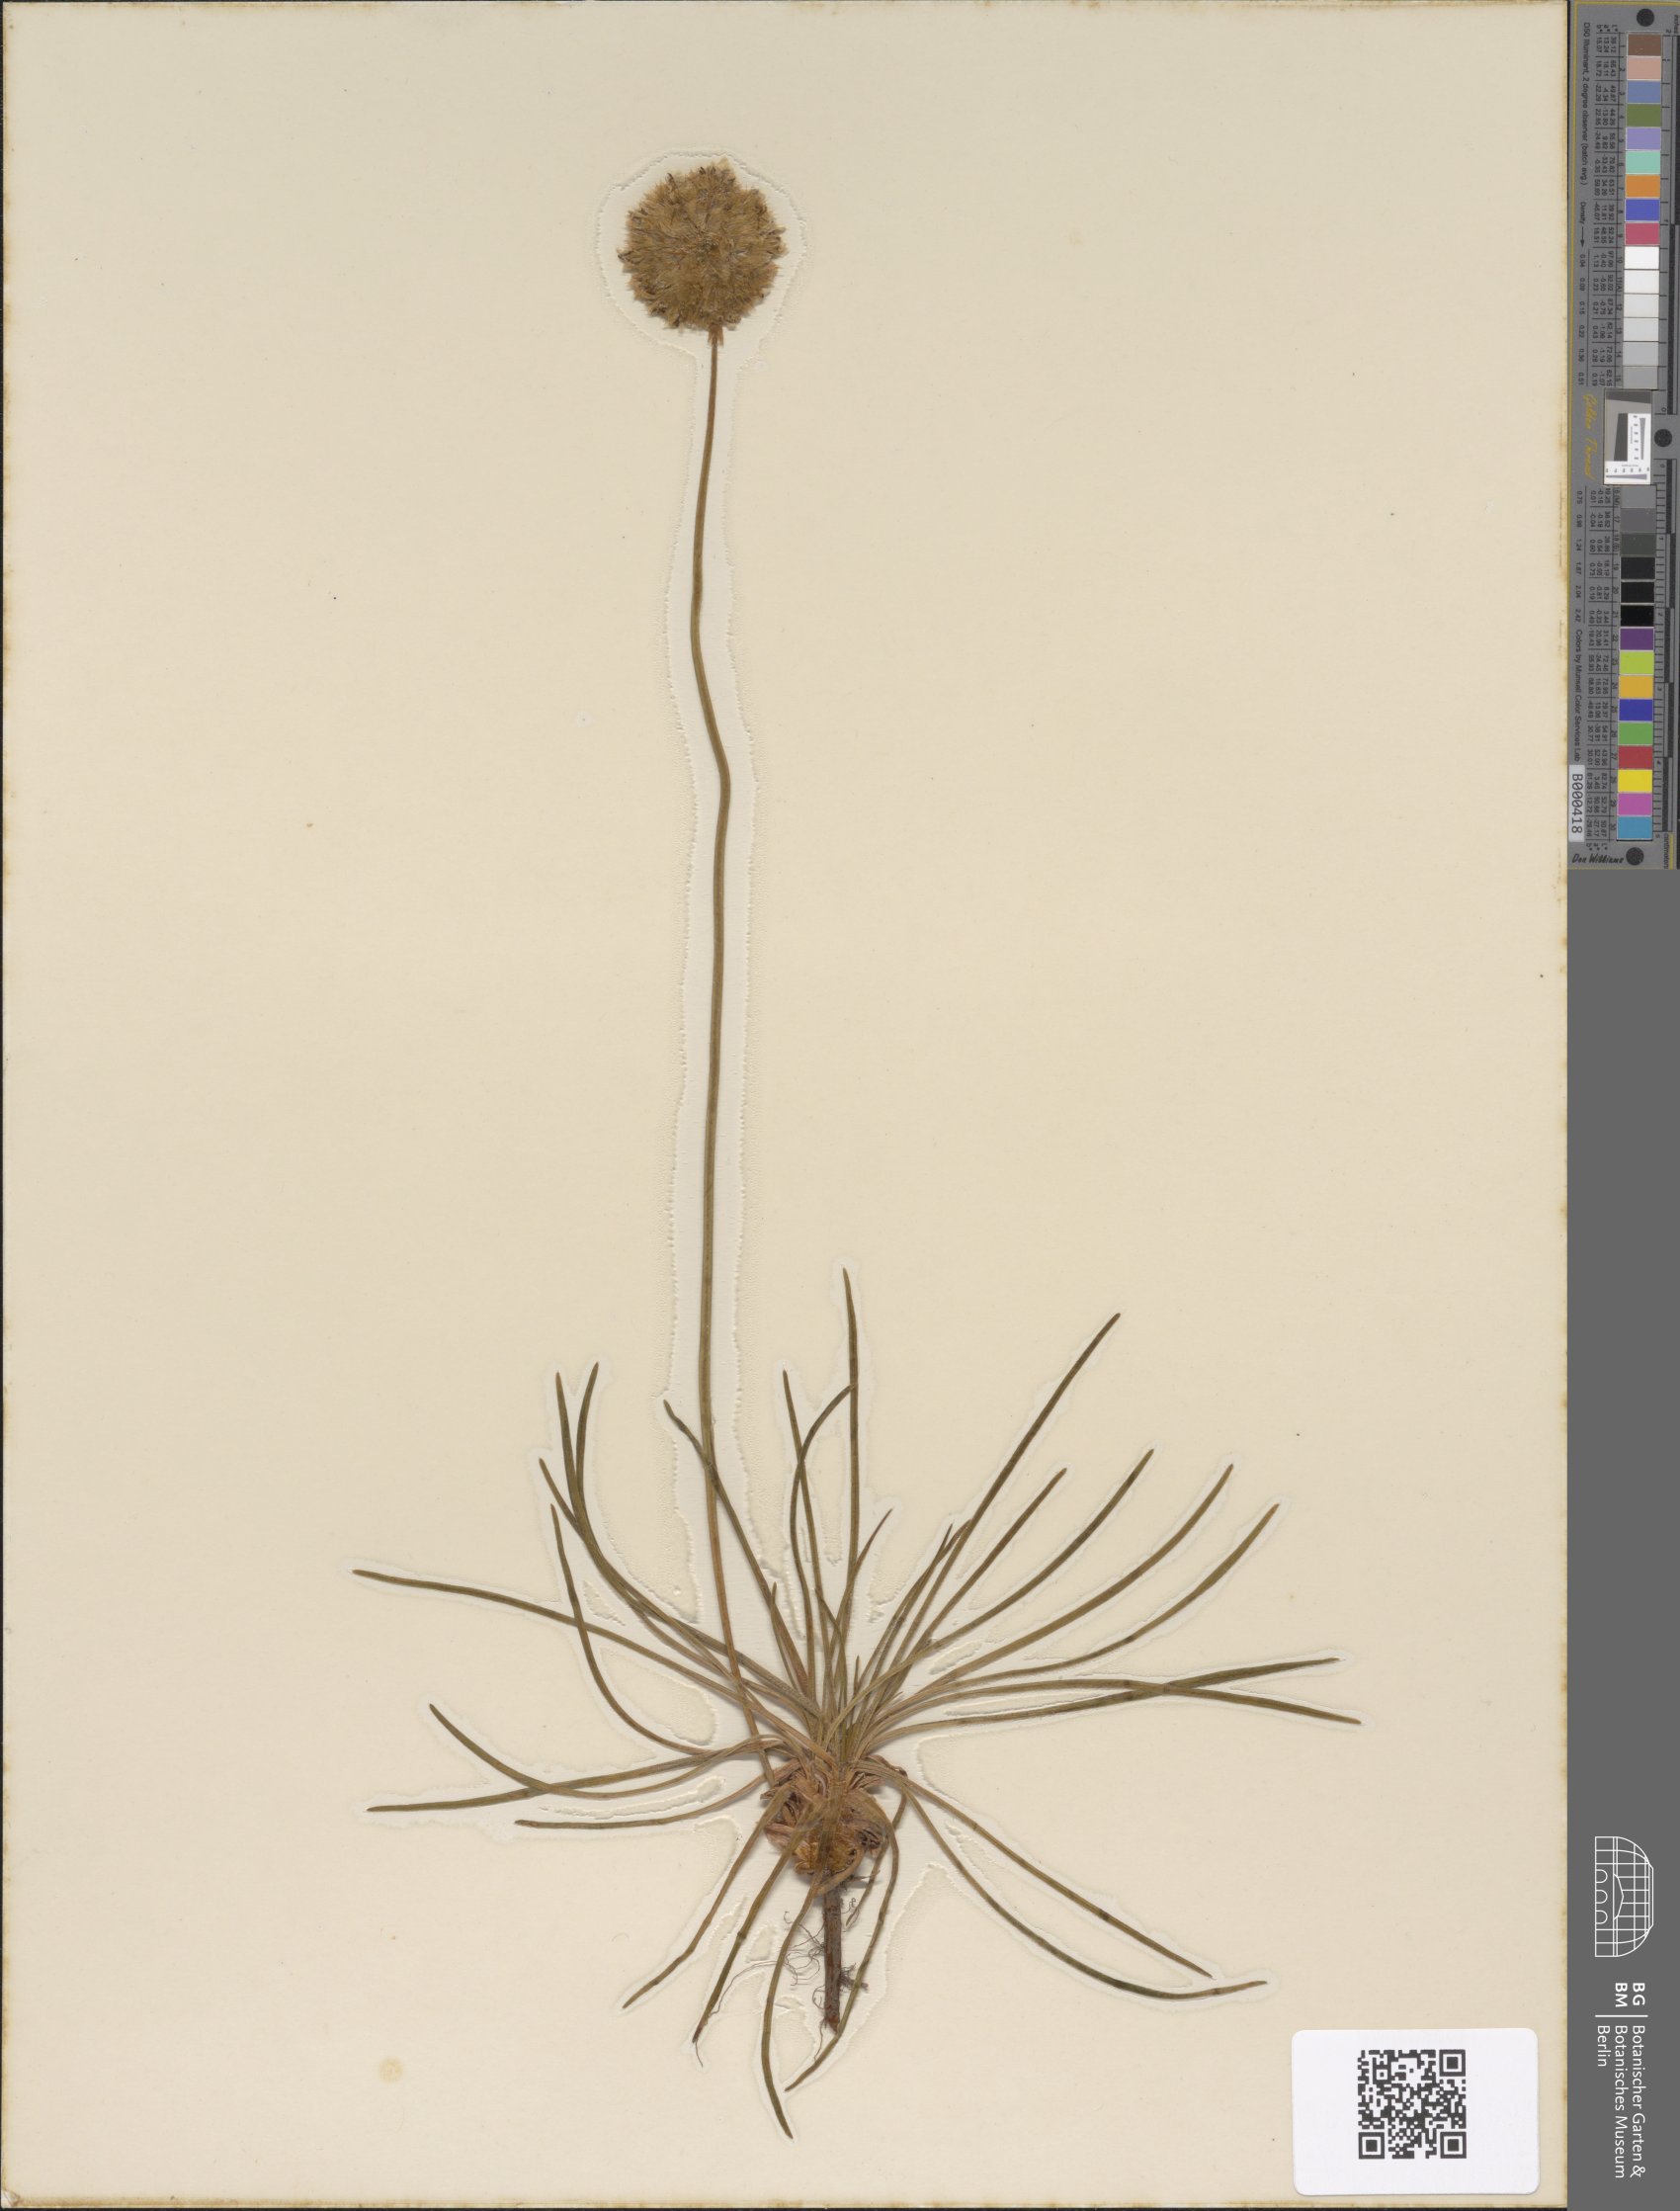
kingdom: Plantae
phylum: Tracheophyta
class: Magnoliopsida
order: Caryophyllales
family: Plumbaginaceae
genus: Armeria
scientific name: Armeria maritima
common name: Thrift
